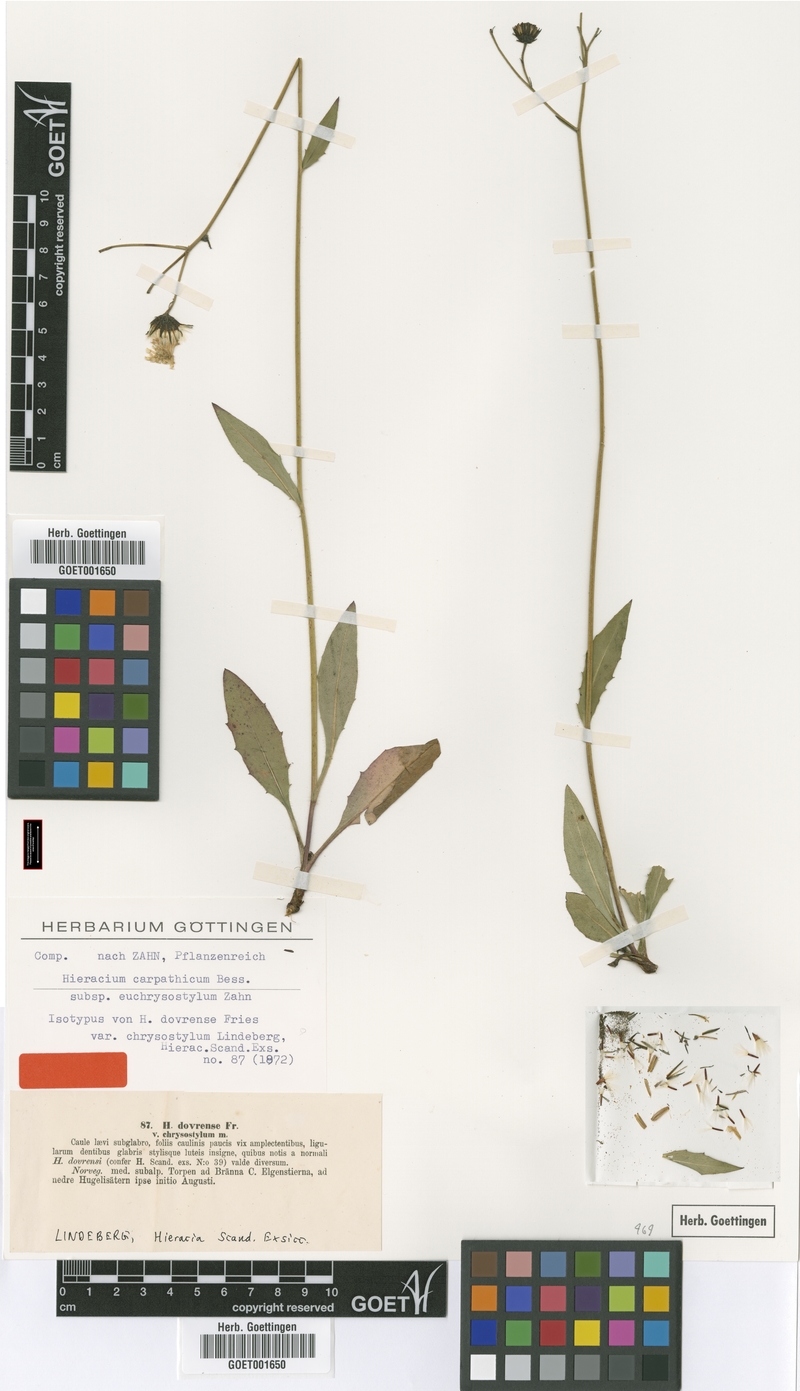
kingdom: Plantae
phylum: Tracheophyta
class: Magnoliopsida
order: Asterales
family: Asteraceae
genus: Hieracium
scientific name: Hieracium chrysostylum
